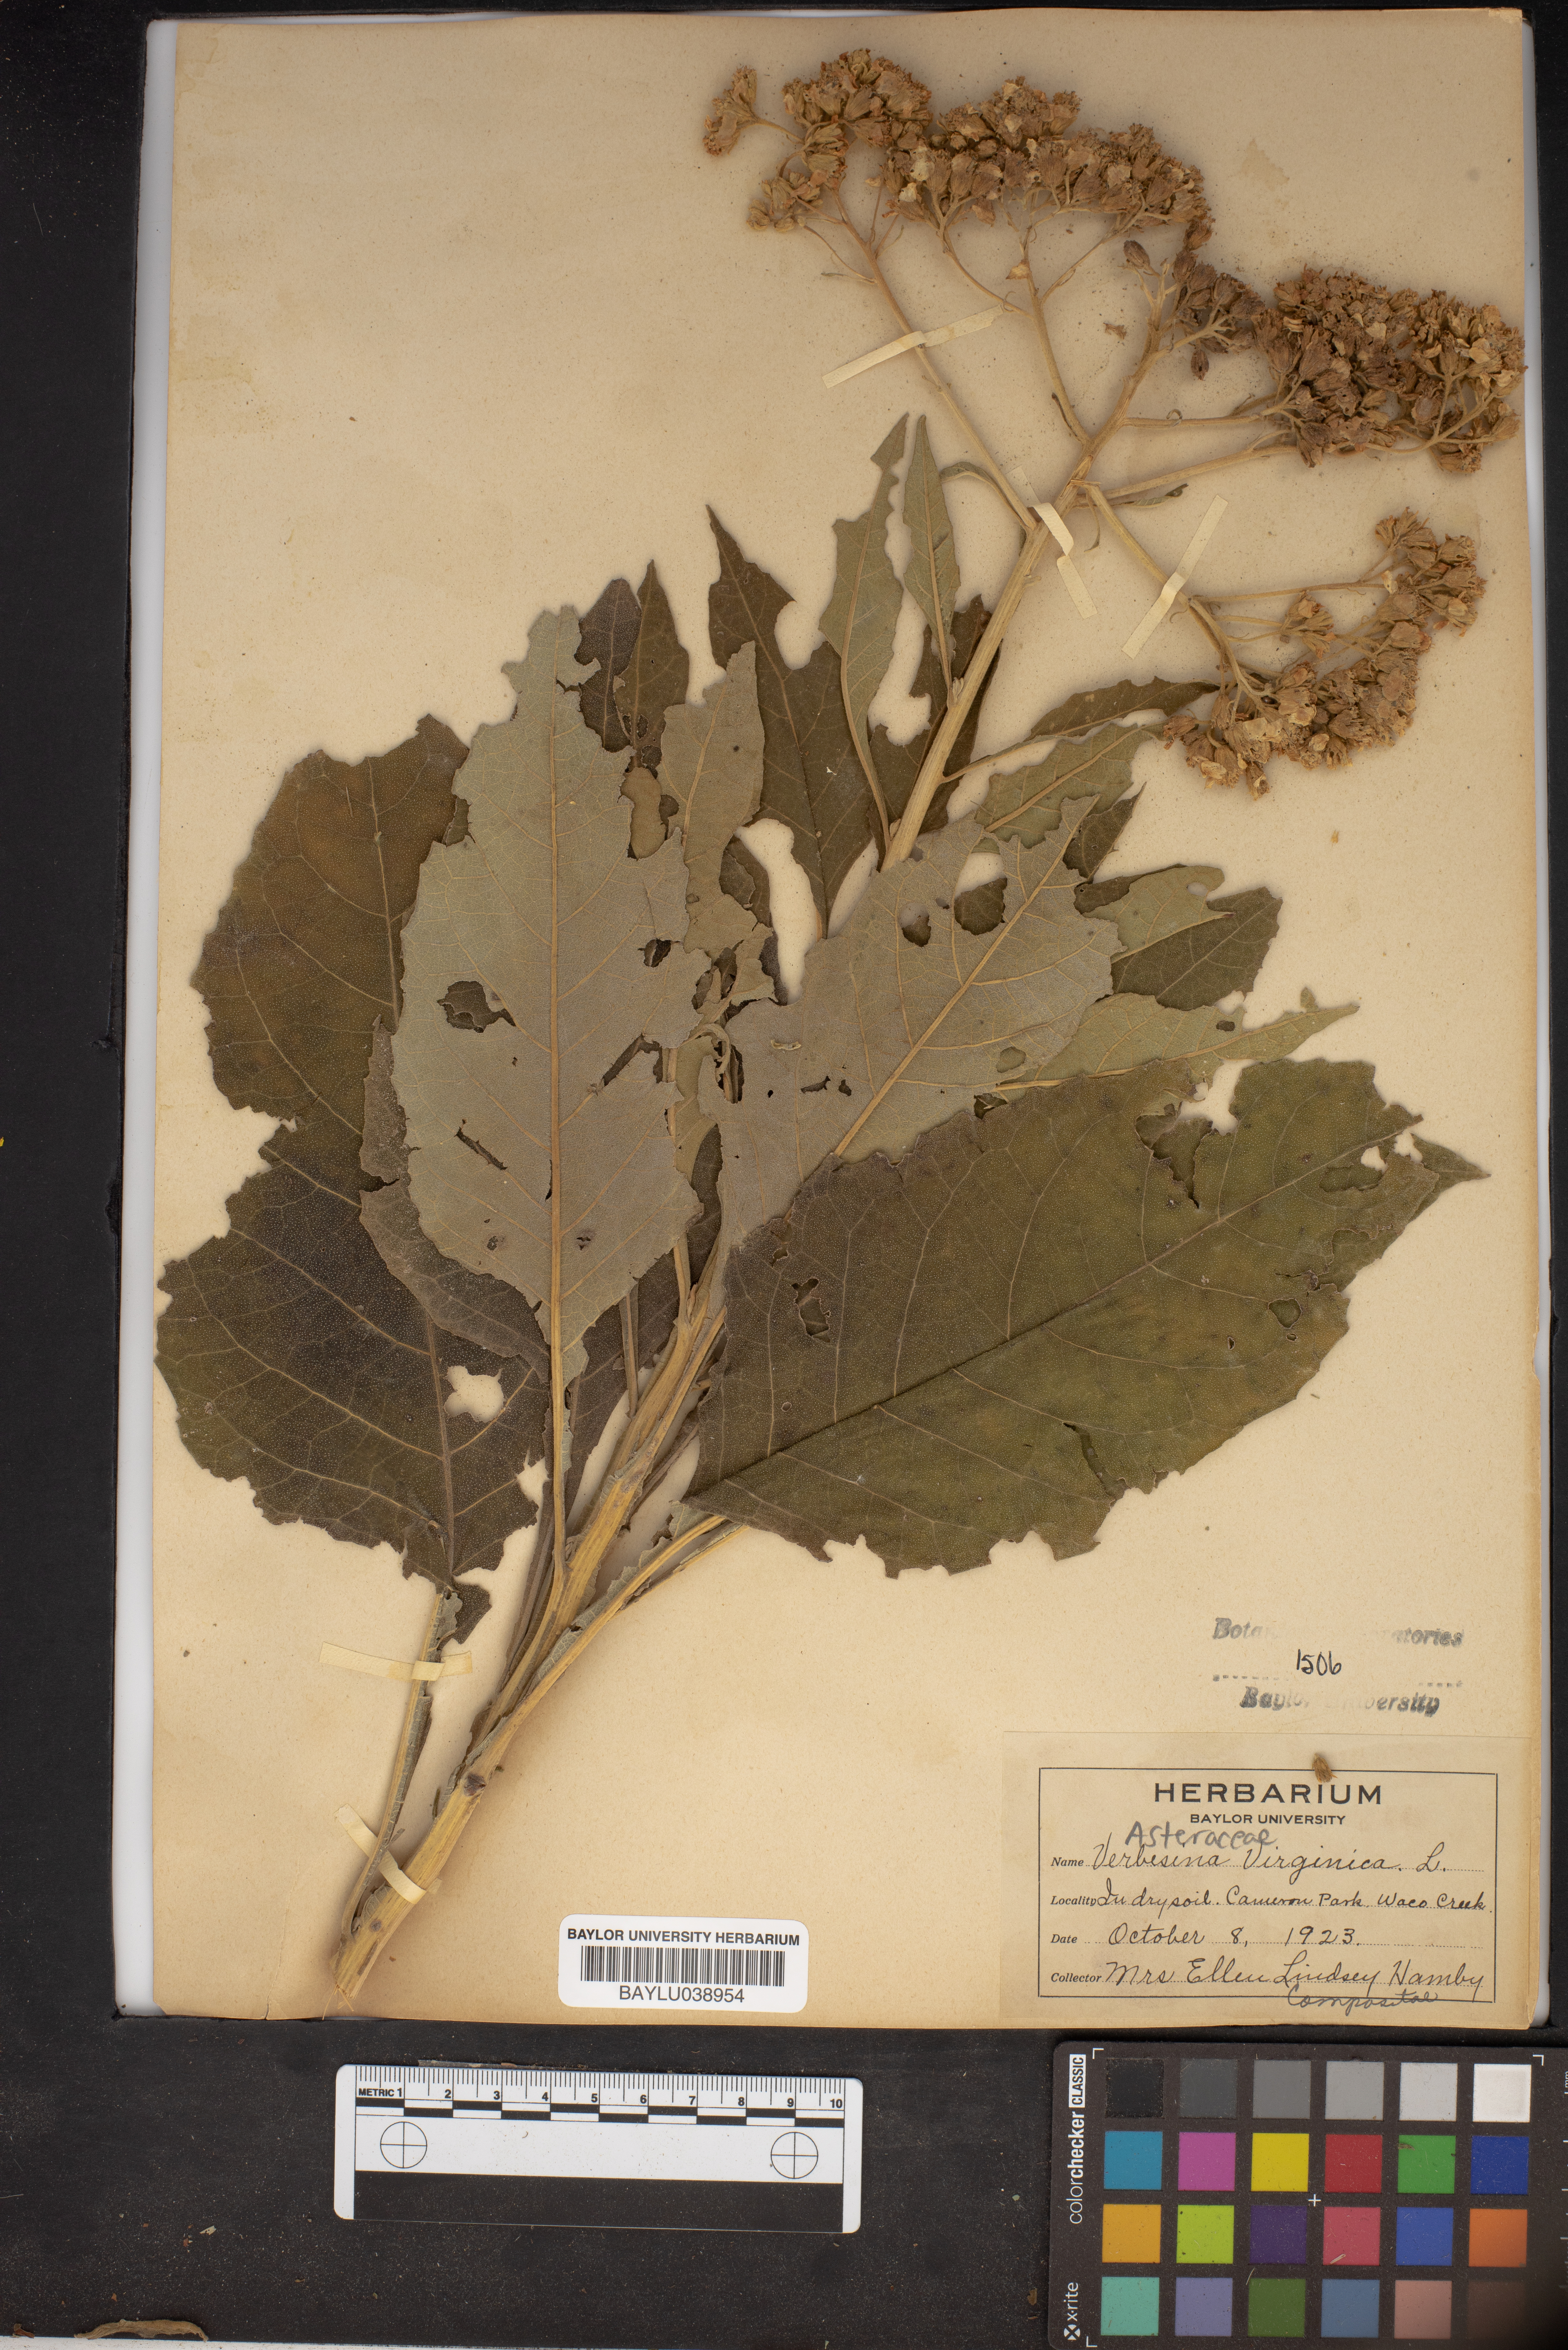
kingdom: Plantae
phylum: Tracheophyta
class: Magnoliopsida
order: Asterales
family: Asteraceae
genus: Verbesina
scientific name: Verbesina virginica
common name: Frostweed
